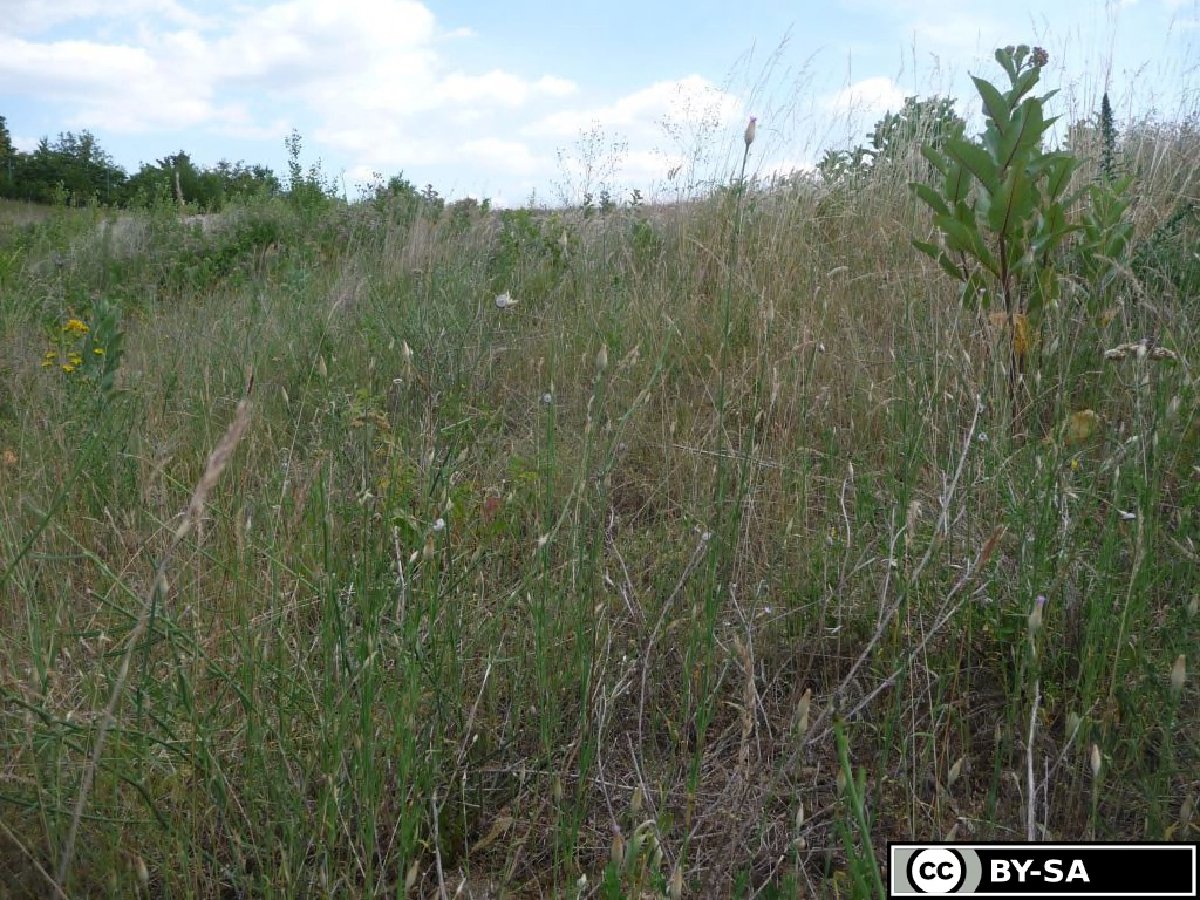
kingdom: Plantae
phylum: Tracheophyta
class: Magnoliopsida
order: Caryophyllales
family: Caryophyllaceae
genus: Petrorhagia
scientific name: Petrorhagia prolifera
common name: Proliferous pink
